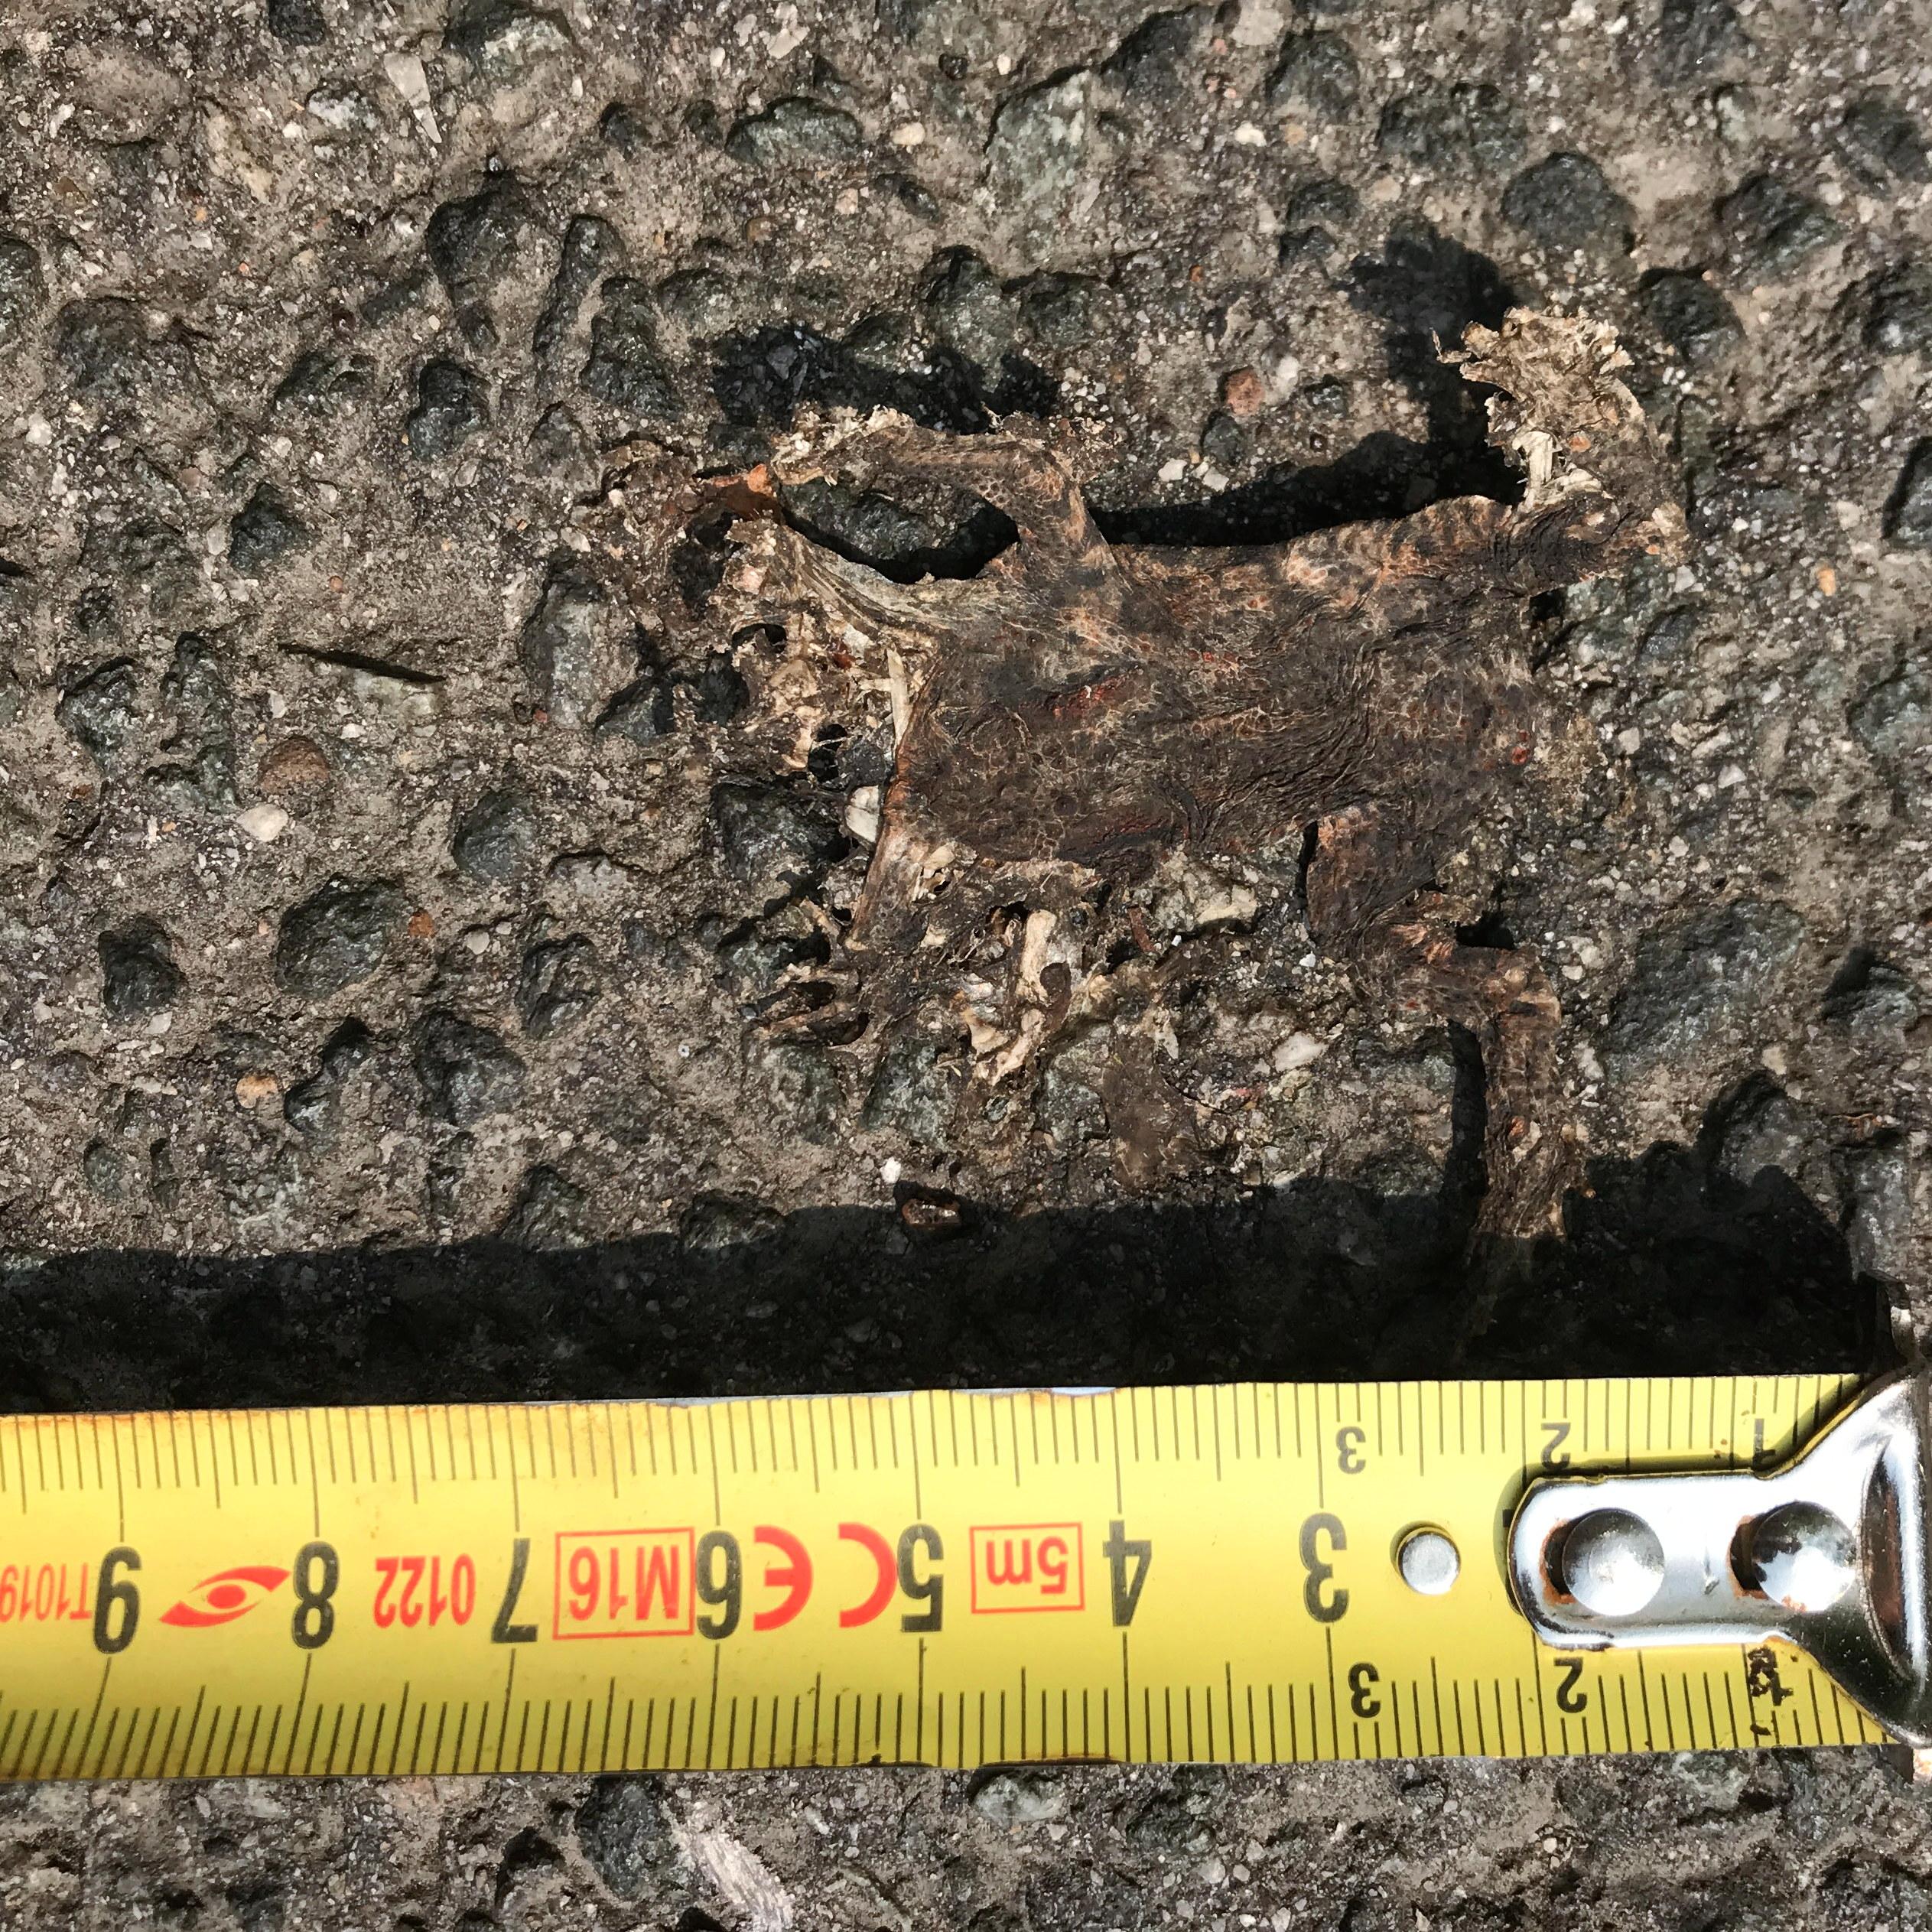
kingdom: Animalia
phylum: Chordata
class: Amphibia
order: Anura
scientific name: Anura
